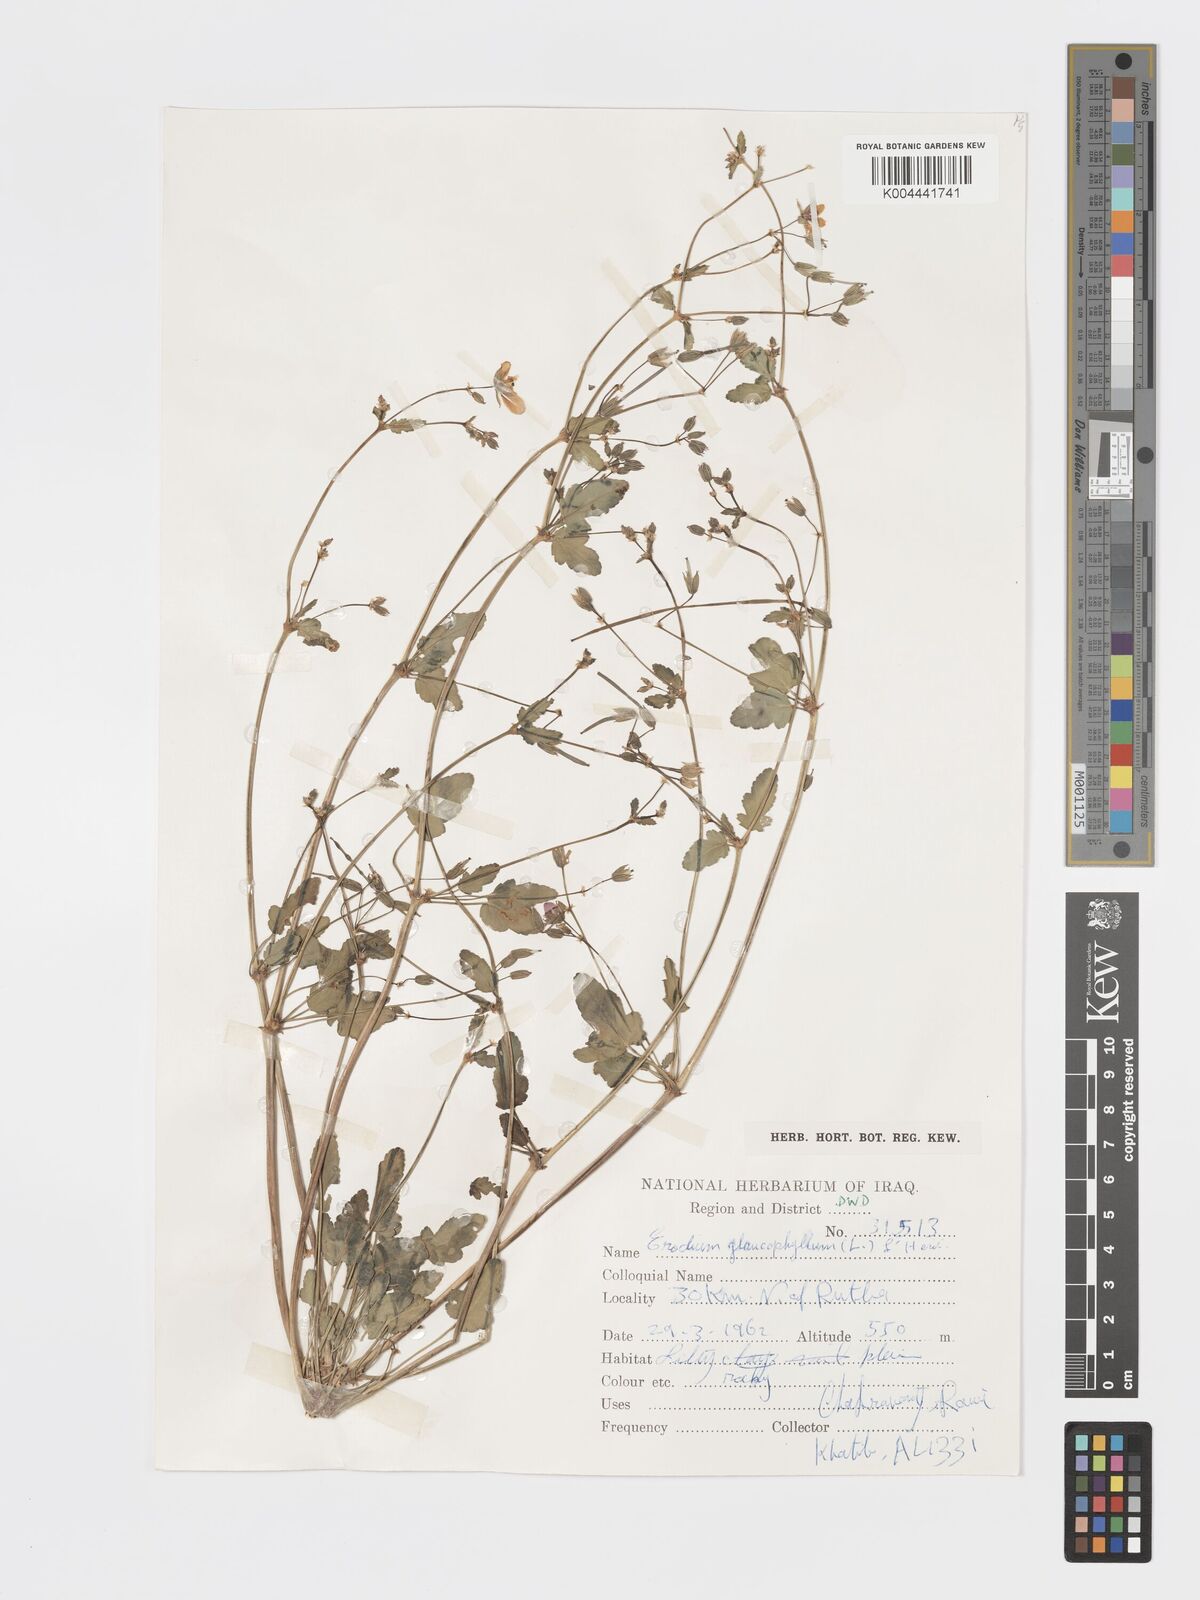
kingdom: Plantae
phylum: Tracheophyta
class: Magnoliopsida
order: Geraniales
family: Geraniaceae
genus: Erodium
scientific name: Erodium glaucophyllum
